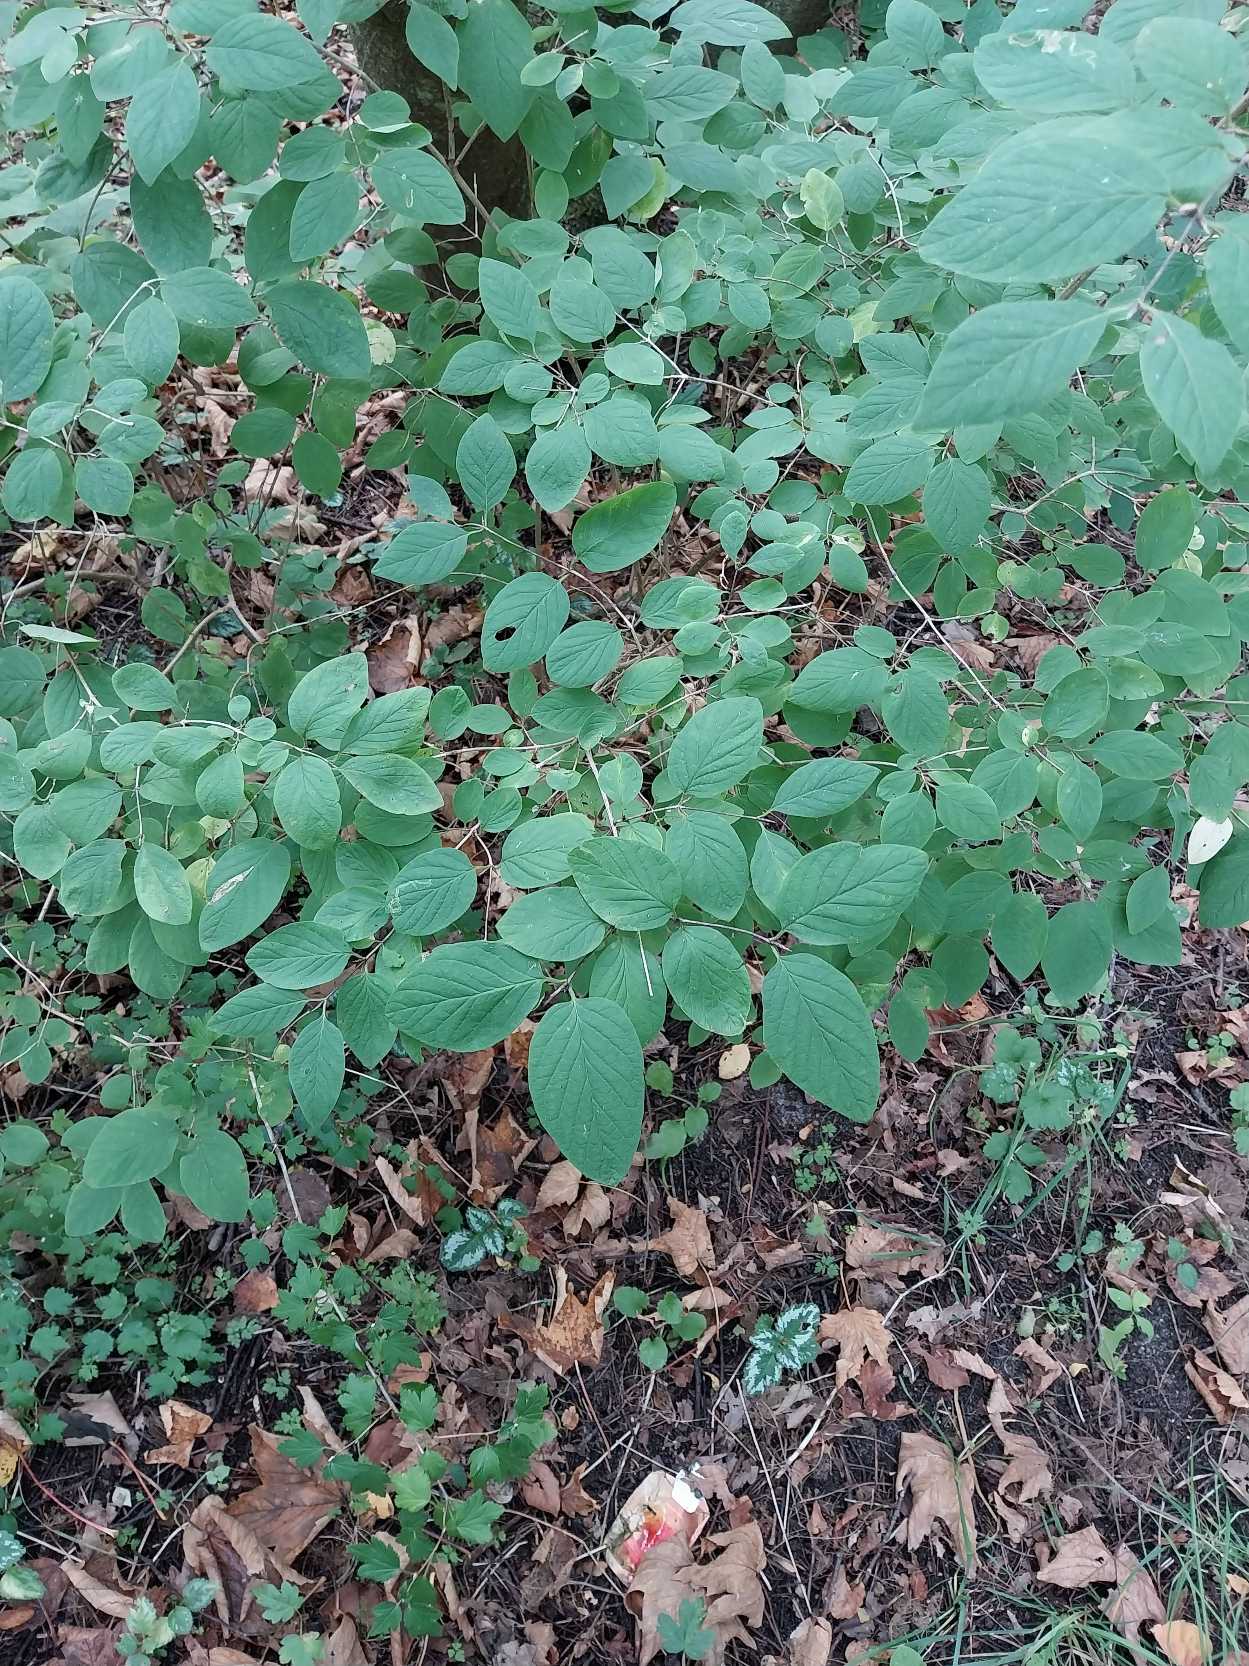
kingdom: Plantae
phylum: Tracheophyta
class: Magnoliopsida
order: Dipsacales
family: Caprifoliaceae
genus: Lonicera
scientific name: Lonicera xylosteum
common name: Dunet gedeblad
